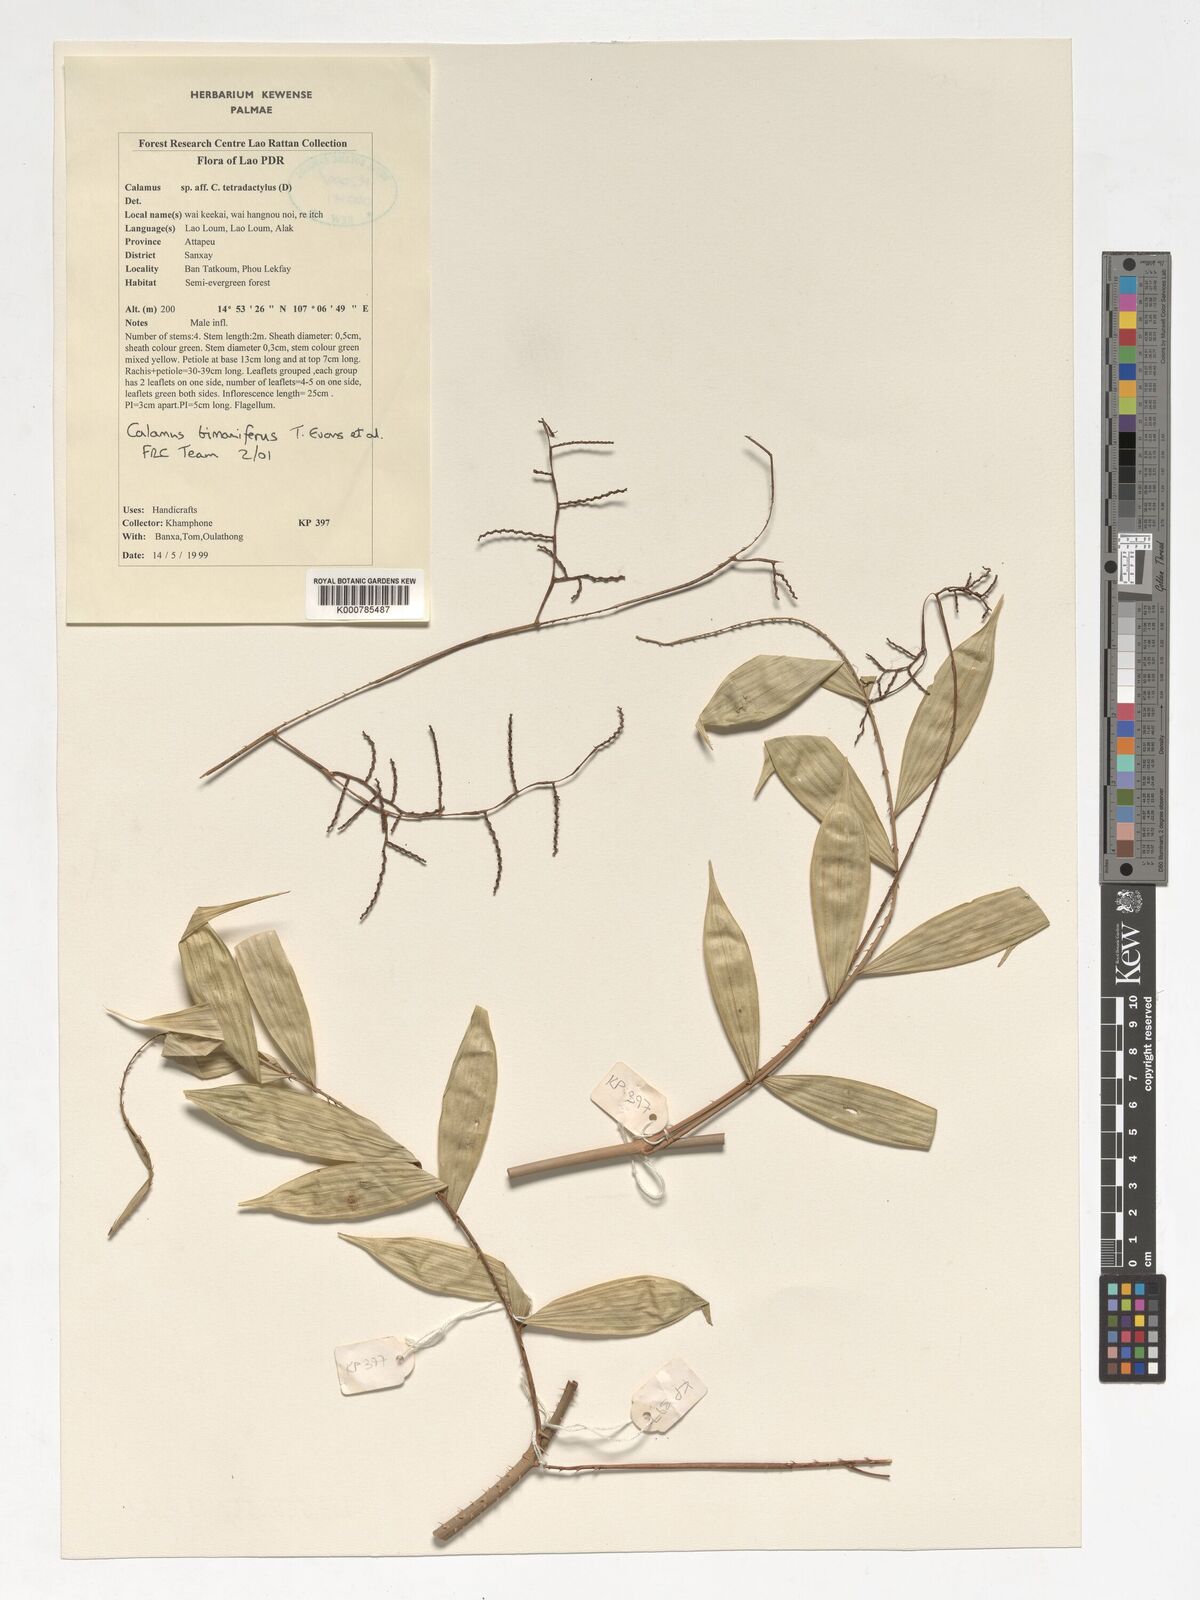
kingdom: Plantae
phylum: Tracheophyta
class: Liliopsida
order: Arecales
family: Arecaceae
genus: Calamus
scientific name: Calamus bimanifer
